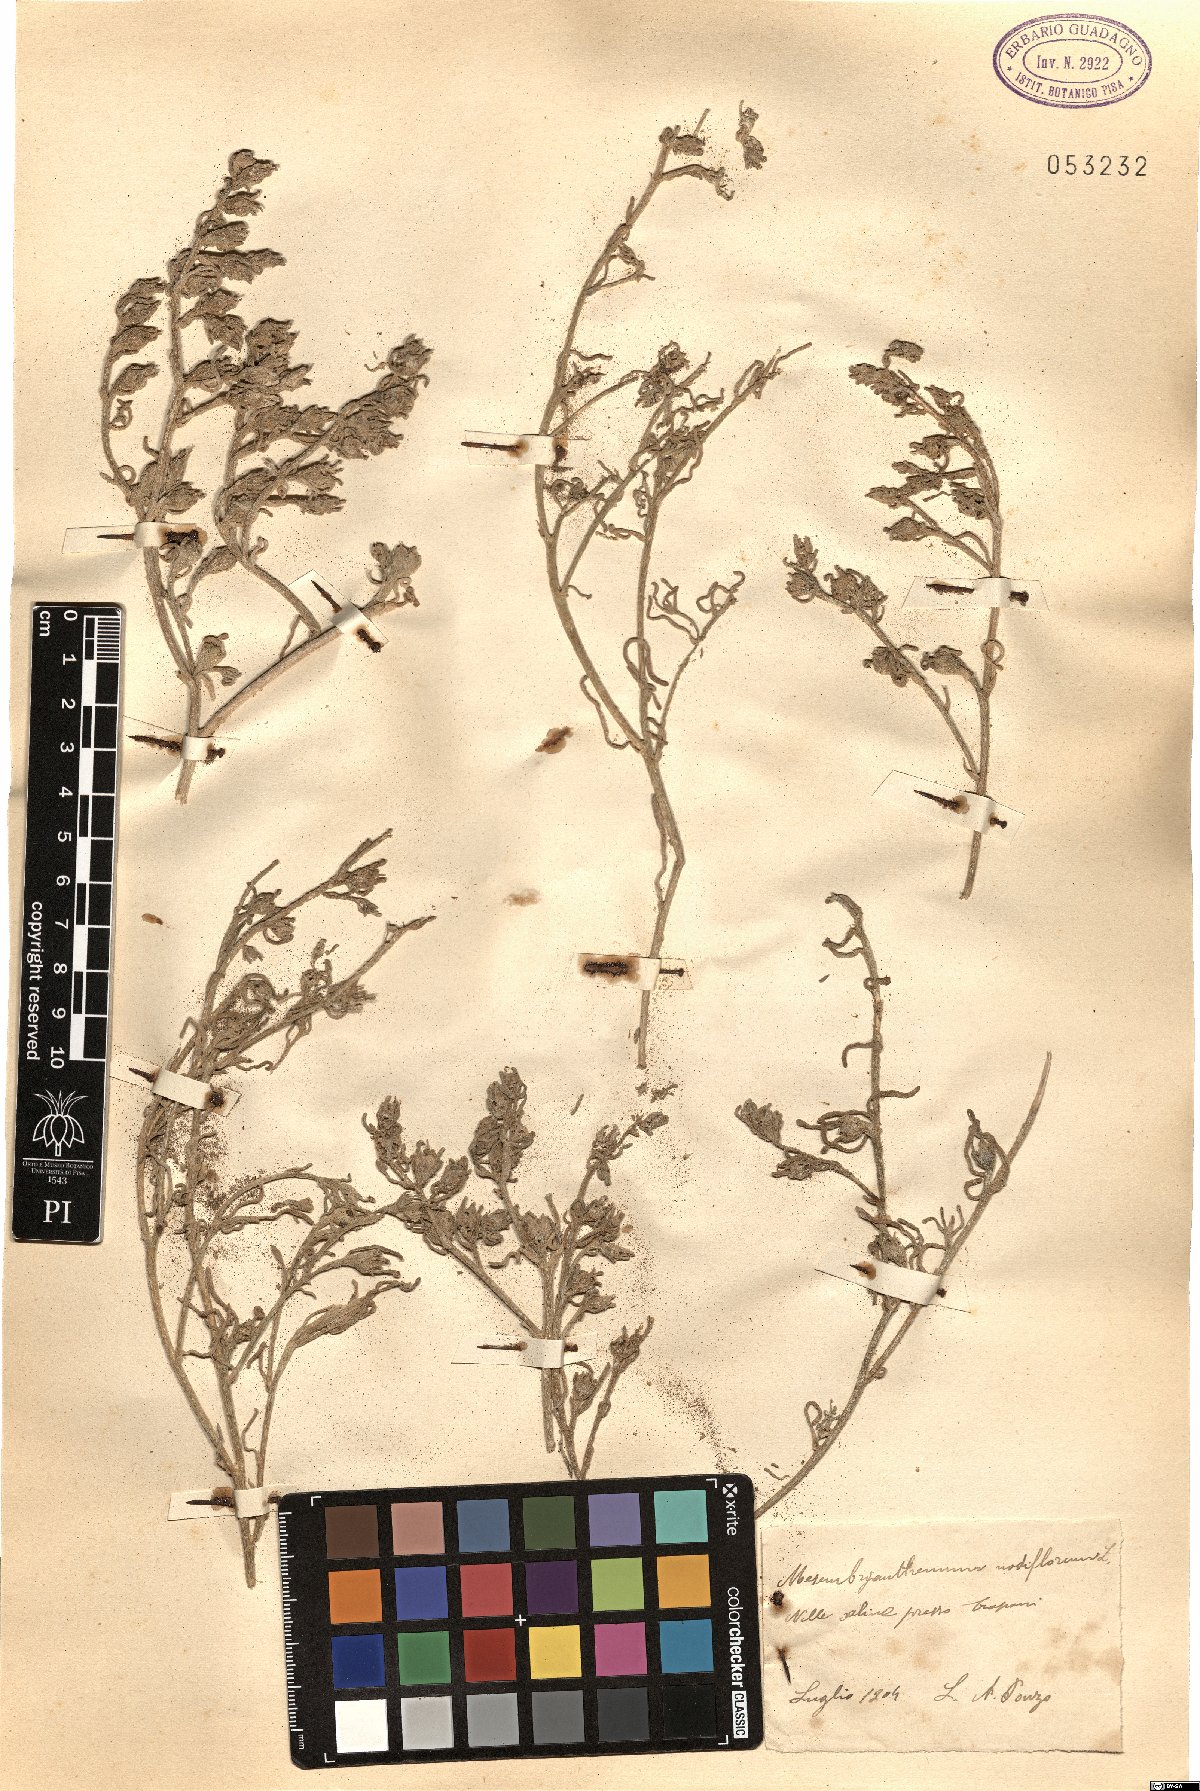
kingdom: Plantae
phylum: Tracheophyta
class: Magnoliopsida
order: Caryophyllales
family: Aizoaceae
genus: Mesembryanthemum
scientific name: Mesembryanthemum nodiflorum
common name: Slenderleaf iceplant
